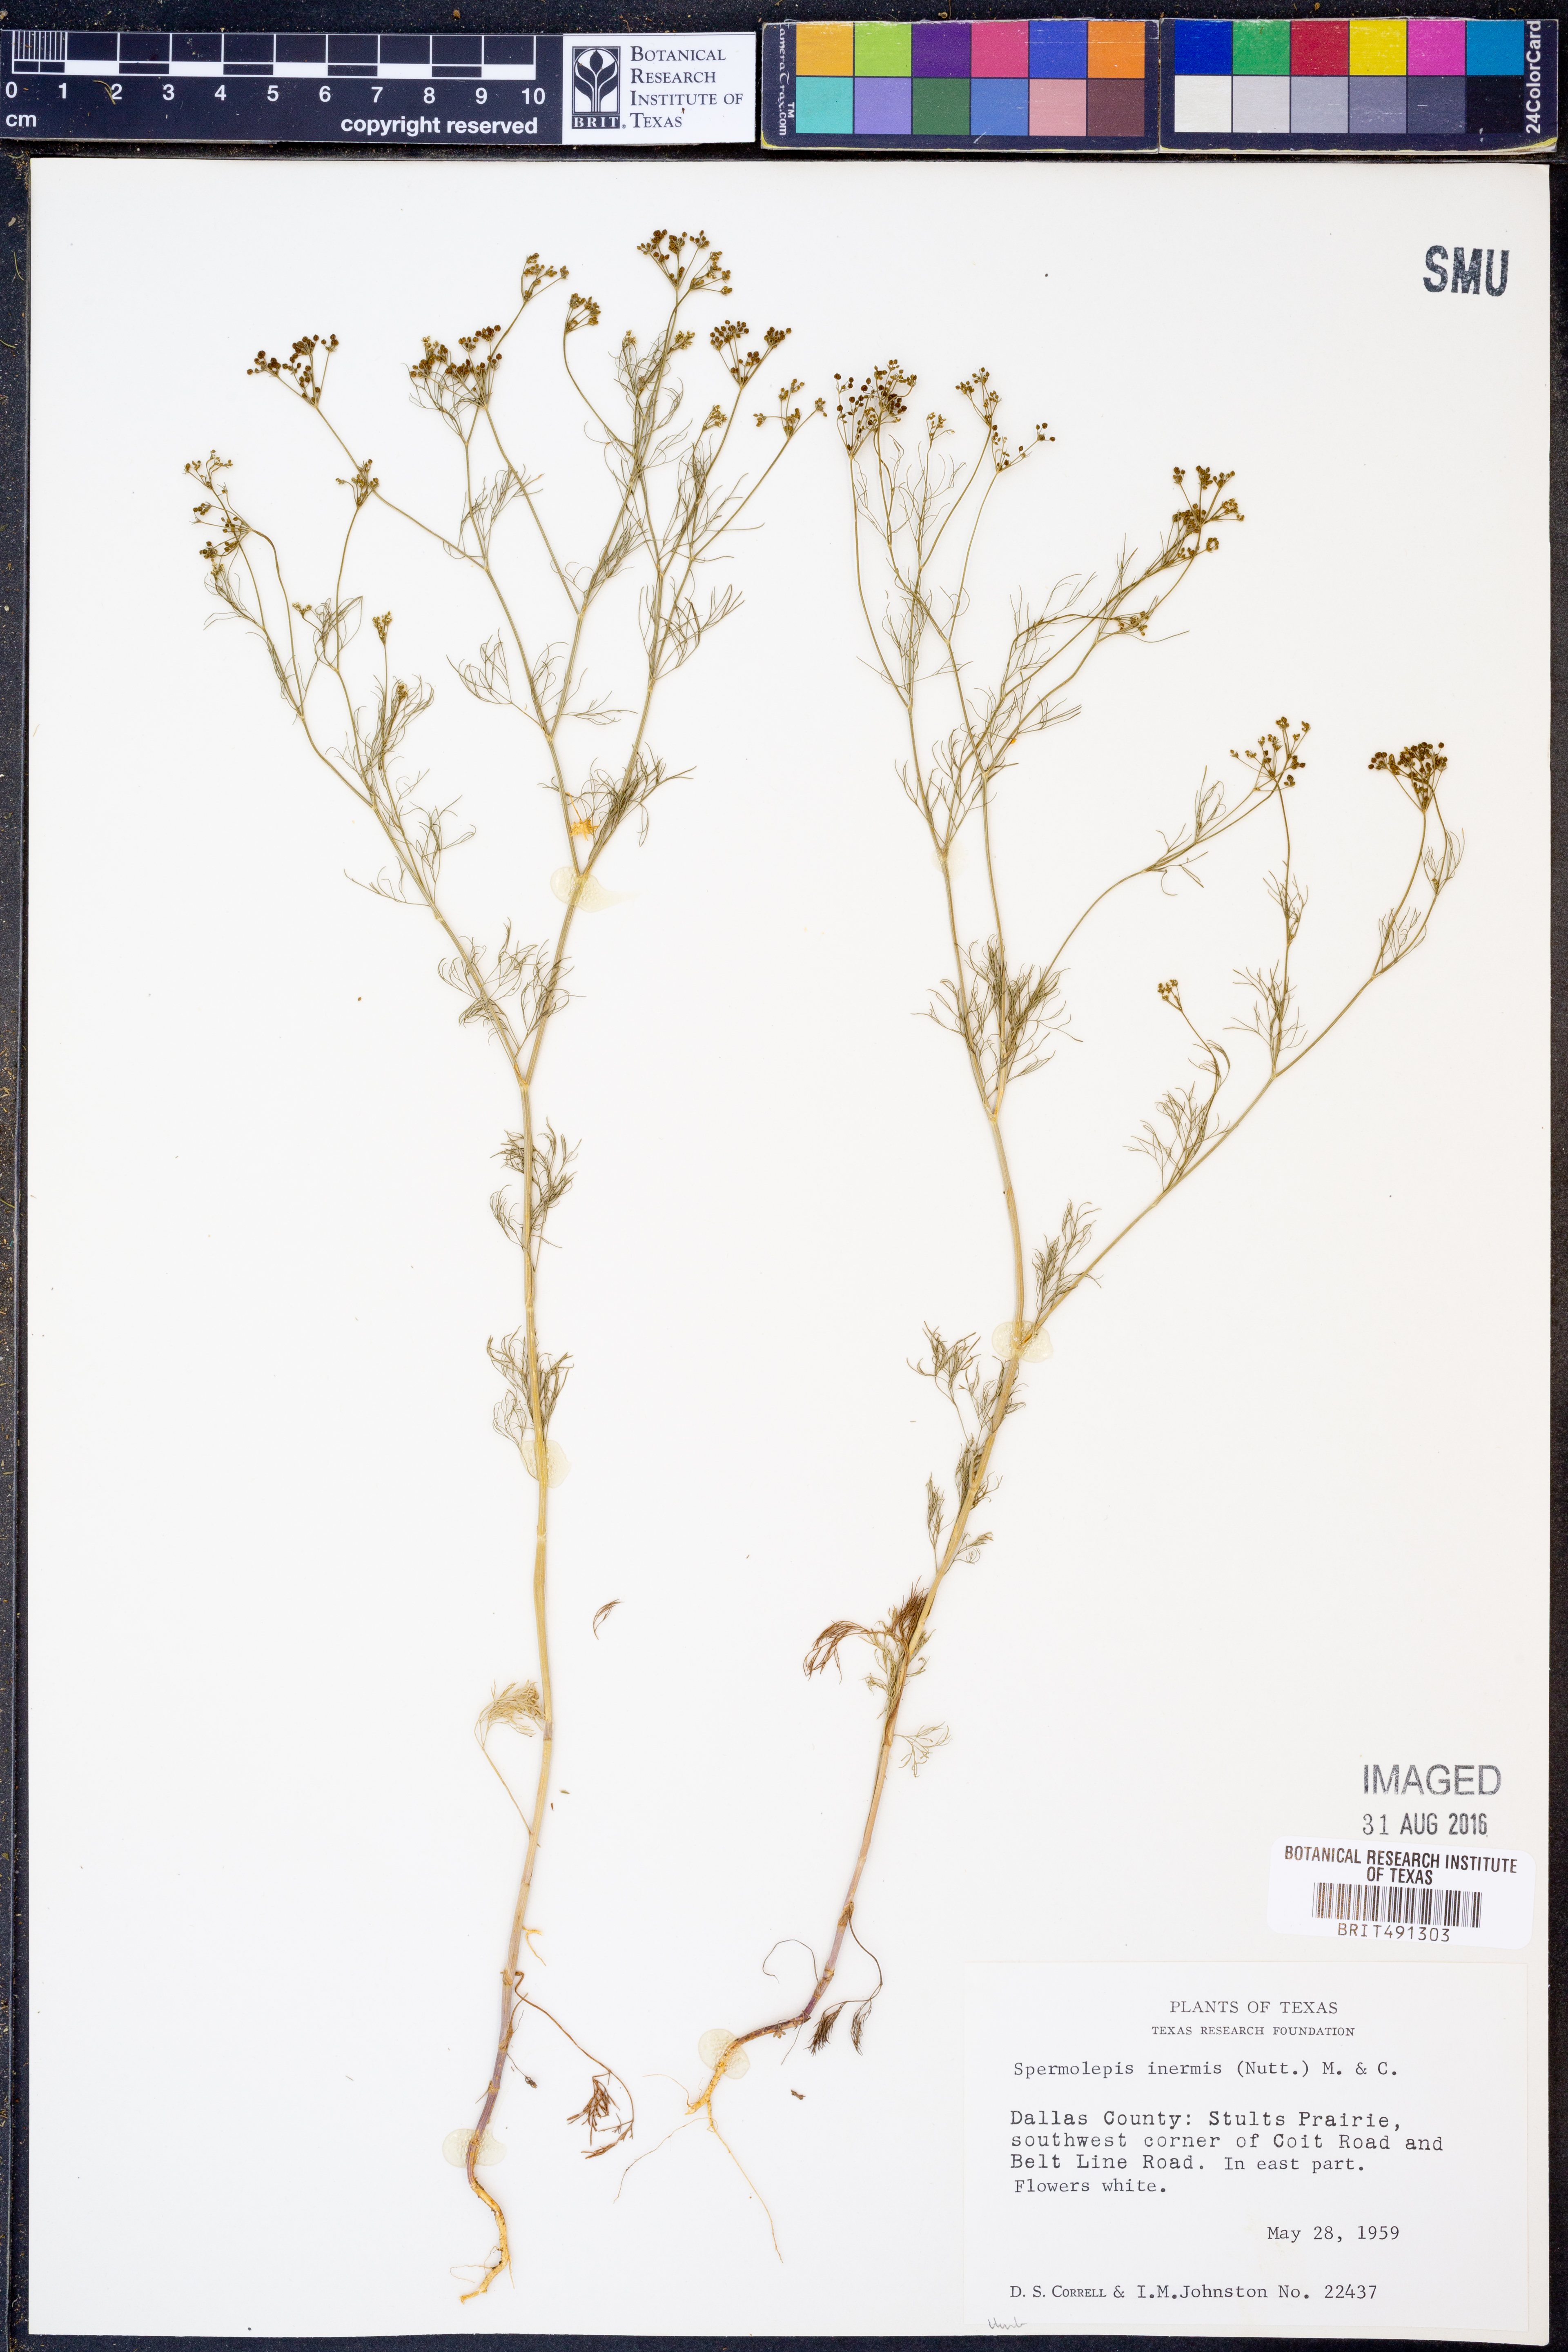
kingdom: Plantae
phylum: Tracheophyta
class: Magnoliopsida
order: Apiales
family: Apiaceae
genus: Spermolepis
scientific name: Spermolepis inermis
